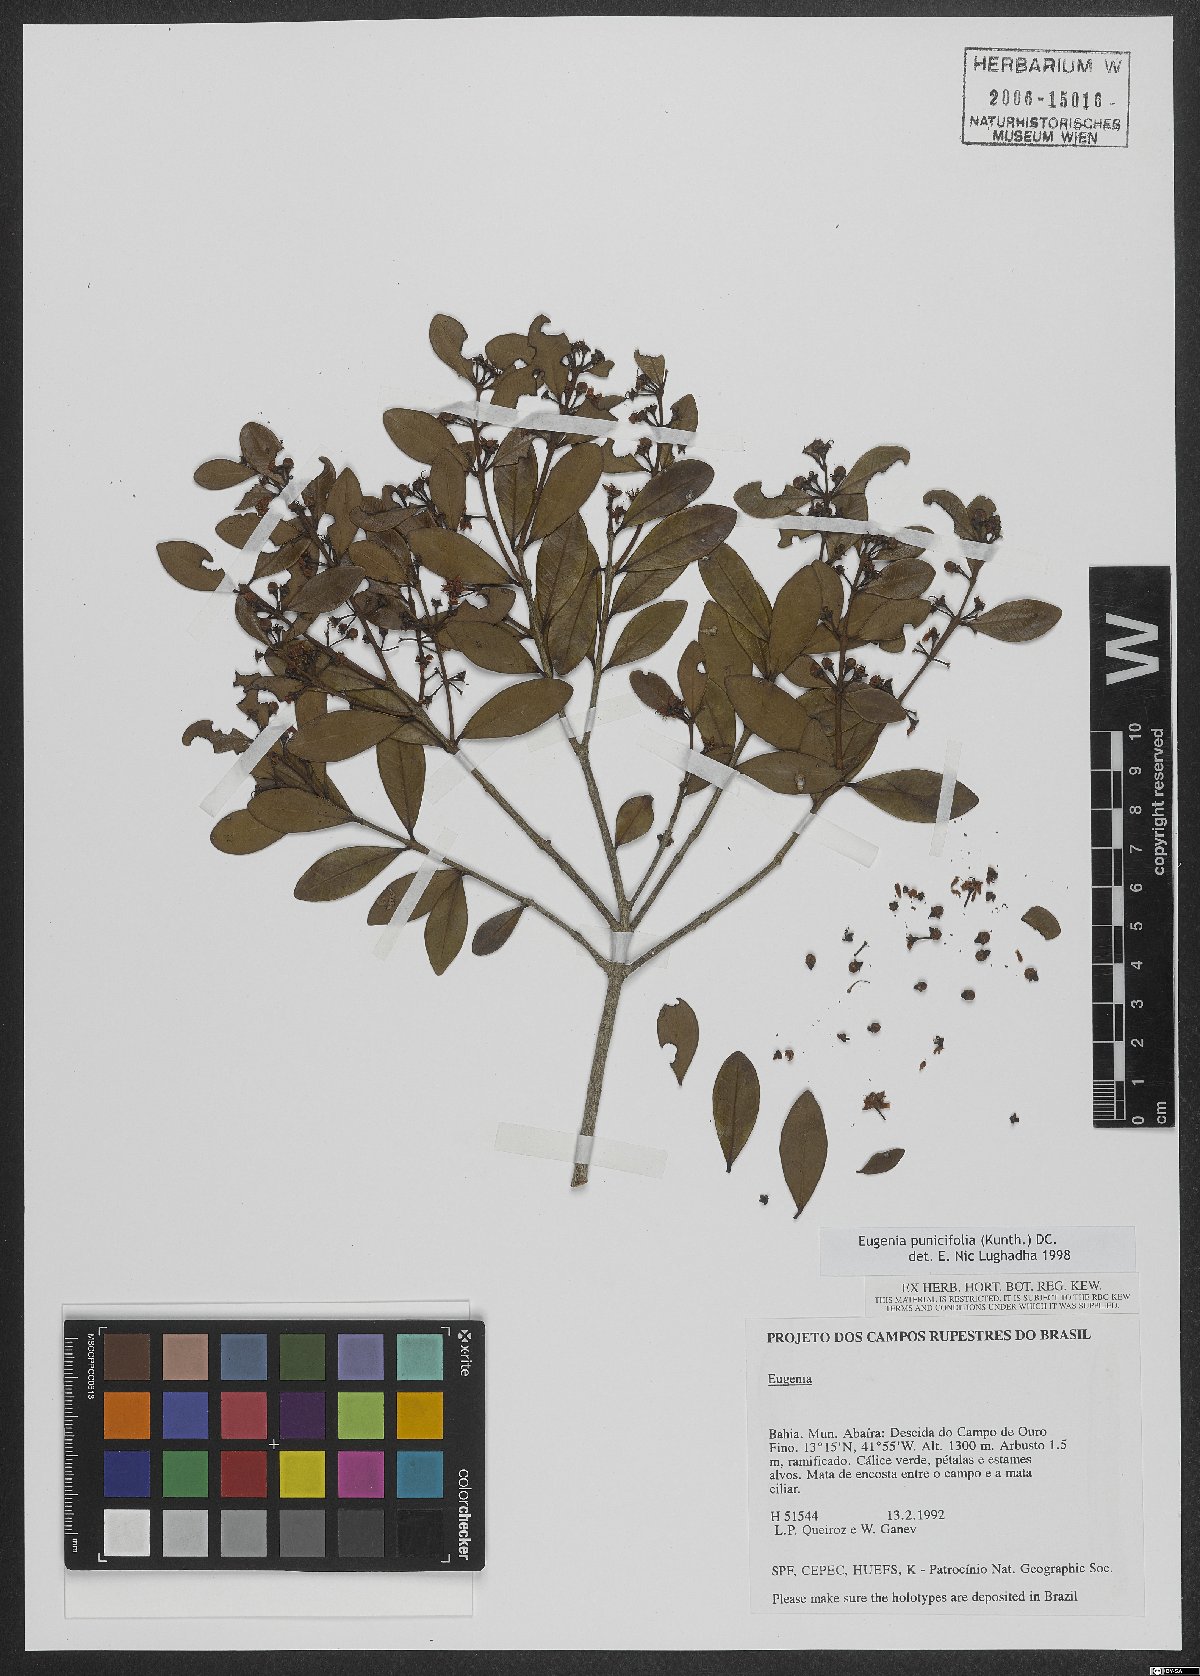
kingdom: Plantae
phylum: Tracheophyta
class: Magnoliopsida
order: Myrtales
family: Myrtaceae
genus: Eugenia
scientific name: Eugenia punicifolia
